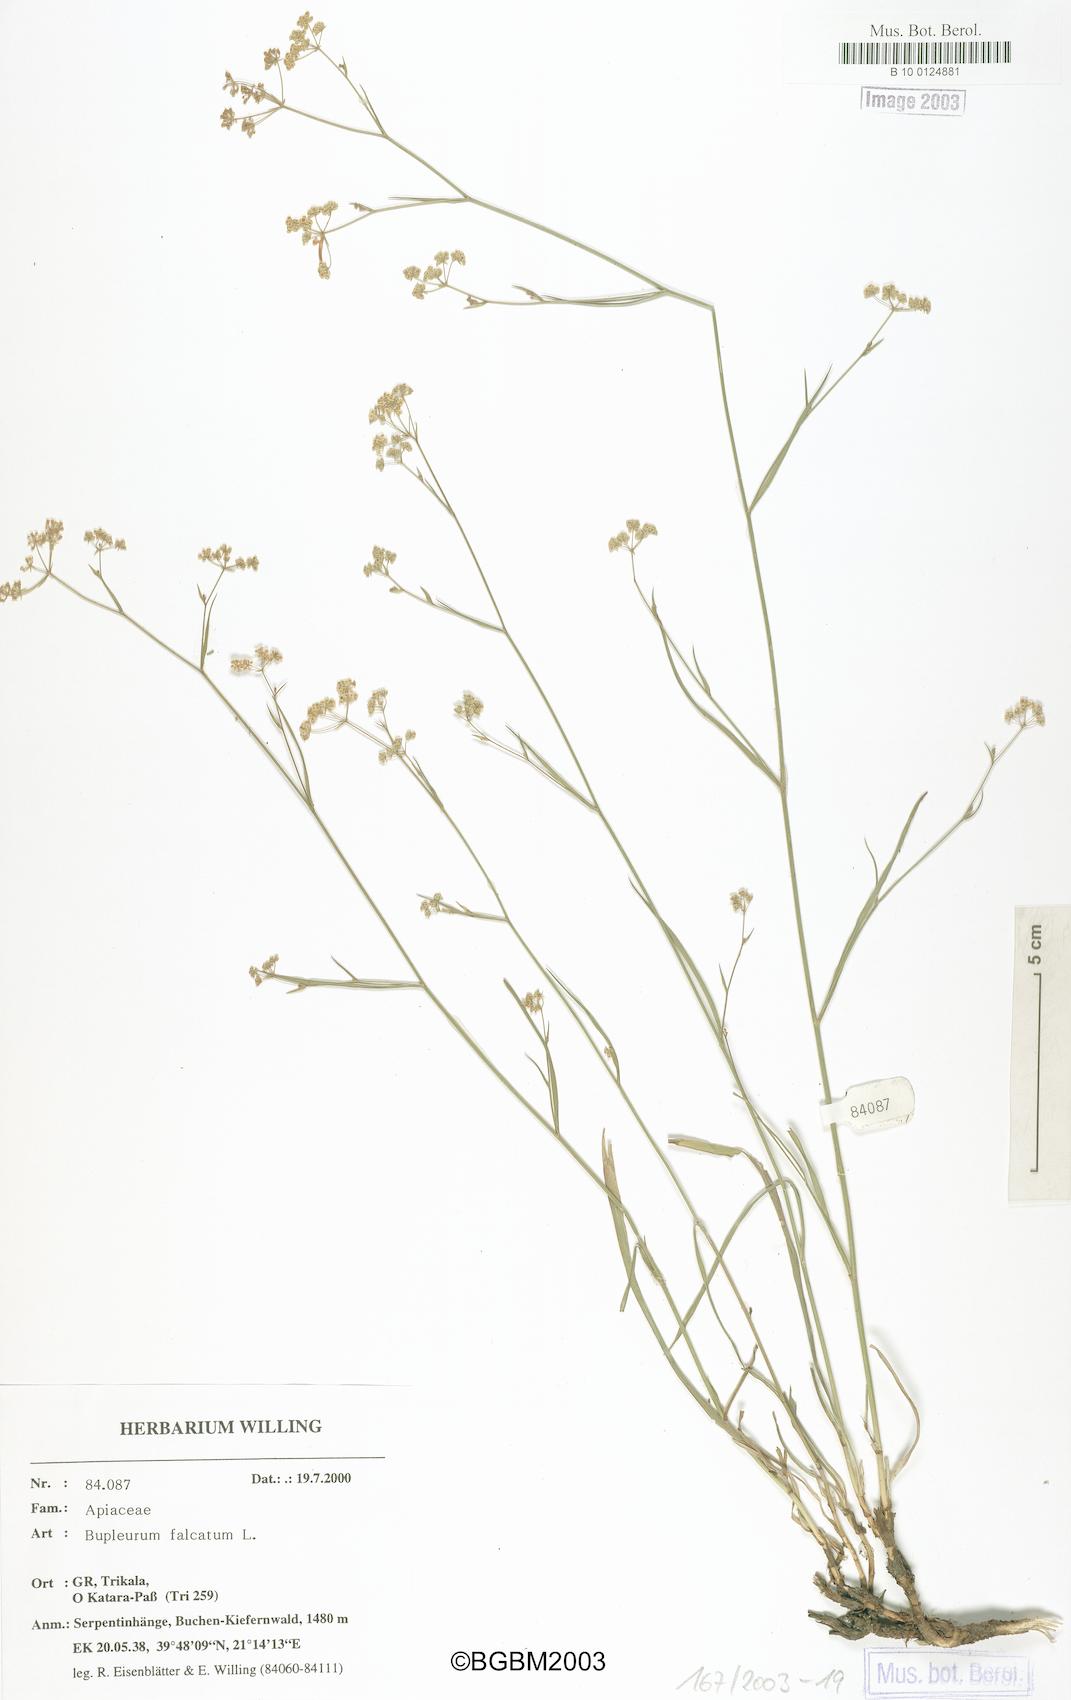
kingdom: Plantae
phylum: Tracheophyta
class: Magnoliopsida
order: Apiales
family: Apiaceae
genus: Bupleurum
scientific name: Bupleurum falcatum
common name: Sickle-leaved hare's-ear
